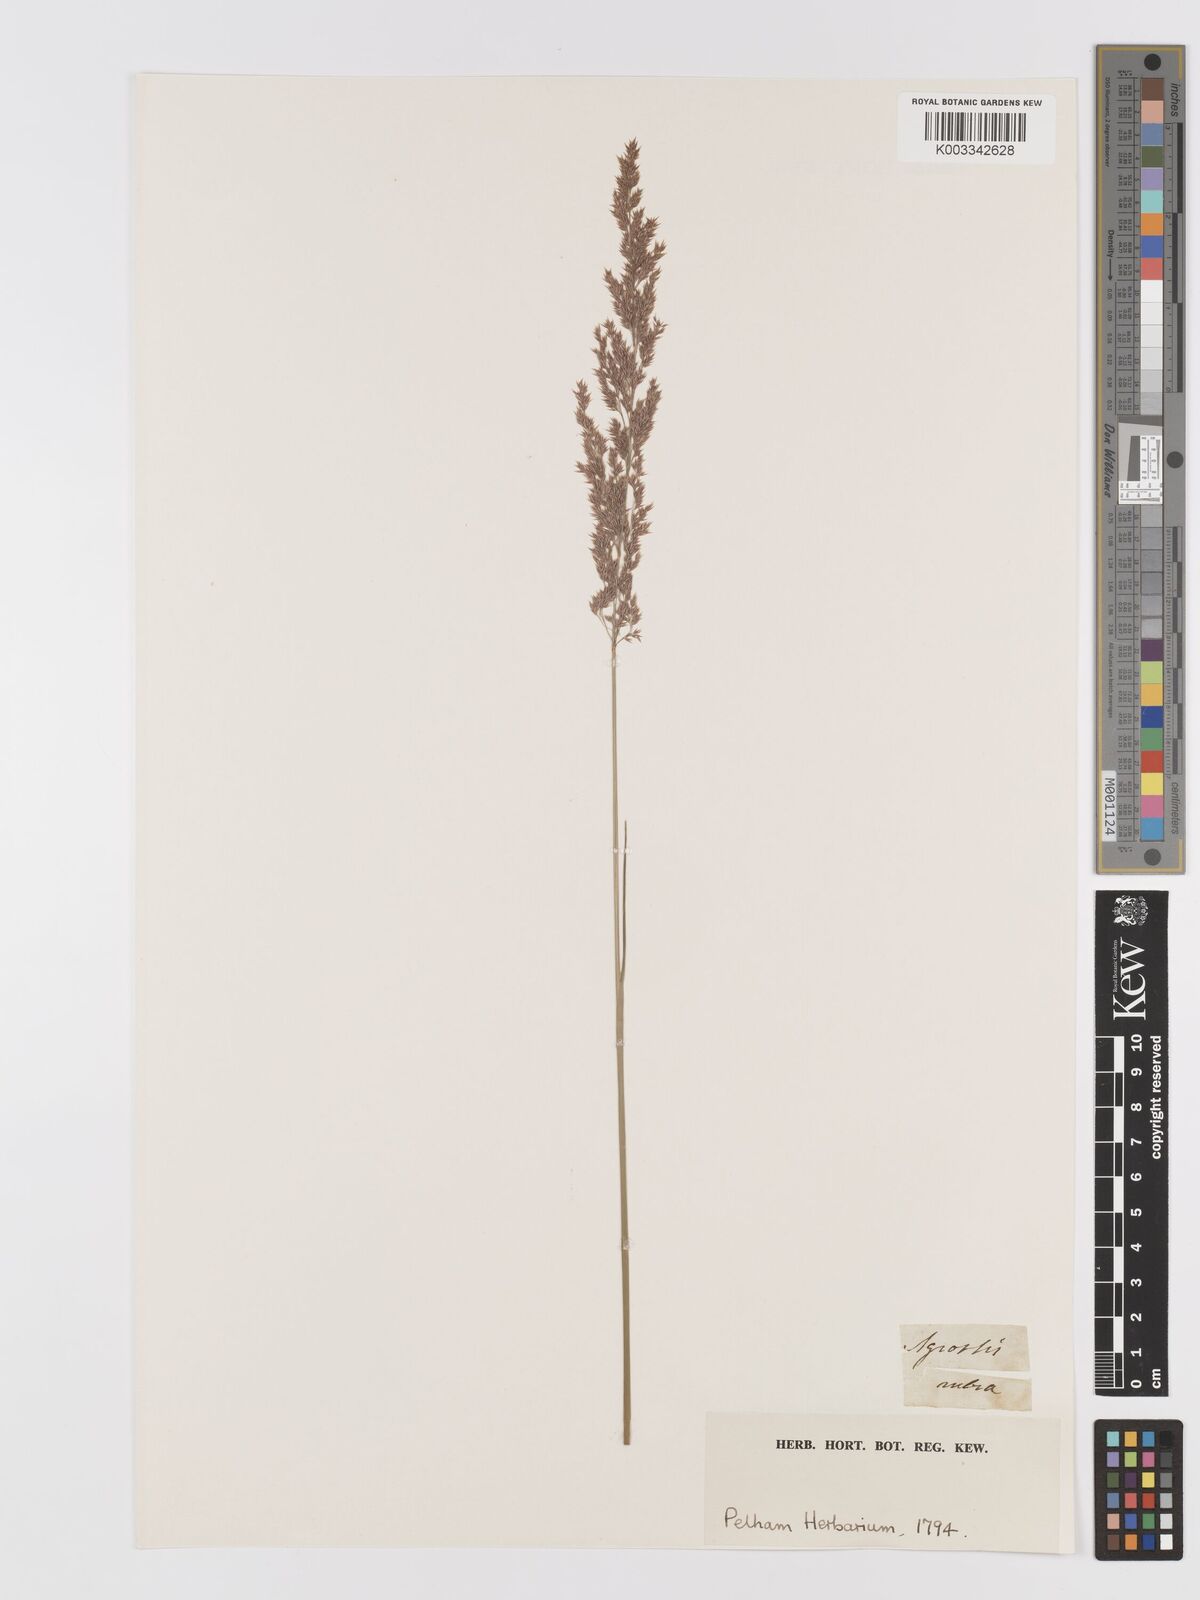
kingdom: Plantae
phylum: Tracheophyta
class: Liliopsida
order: Poales
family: Poaceae
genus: Agrostis
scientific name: Agrostis
